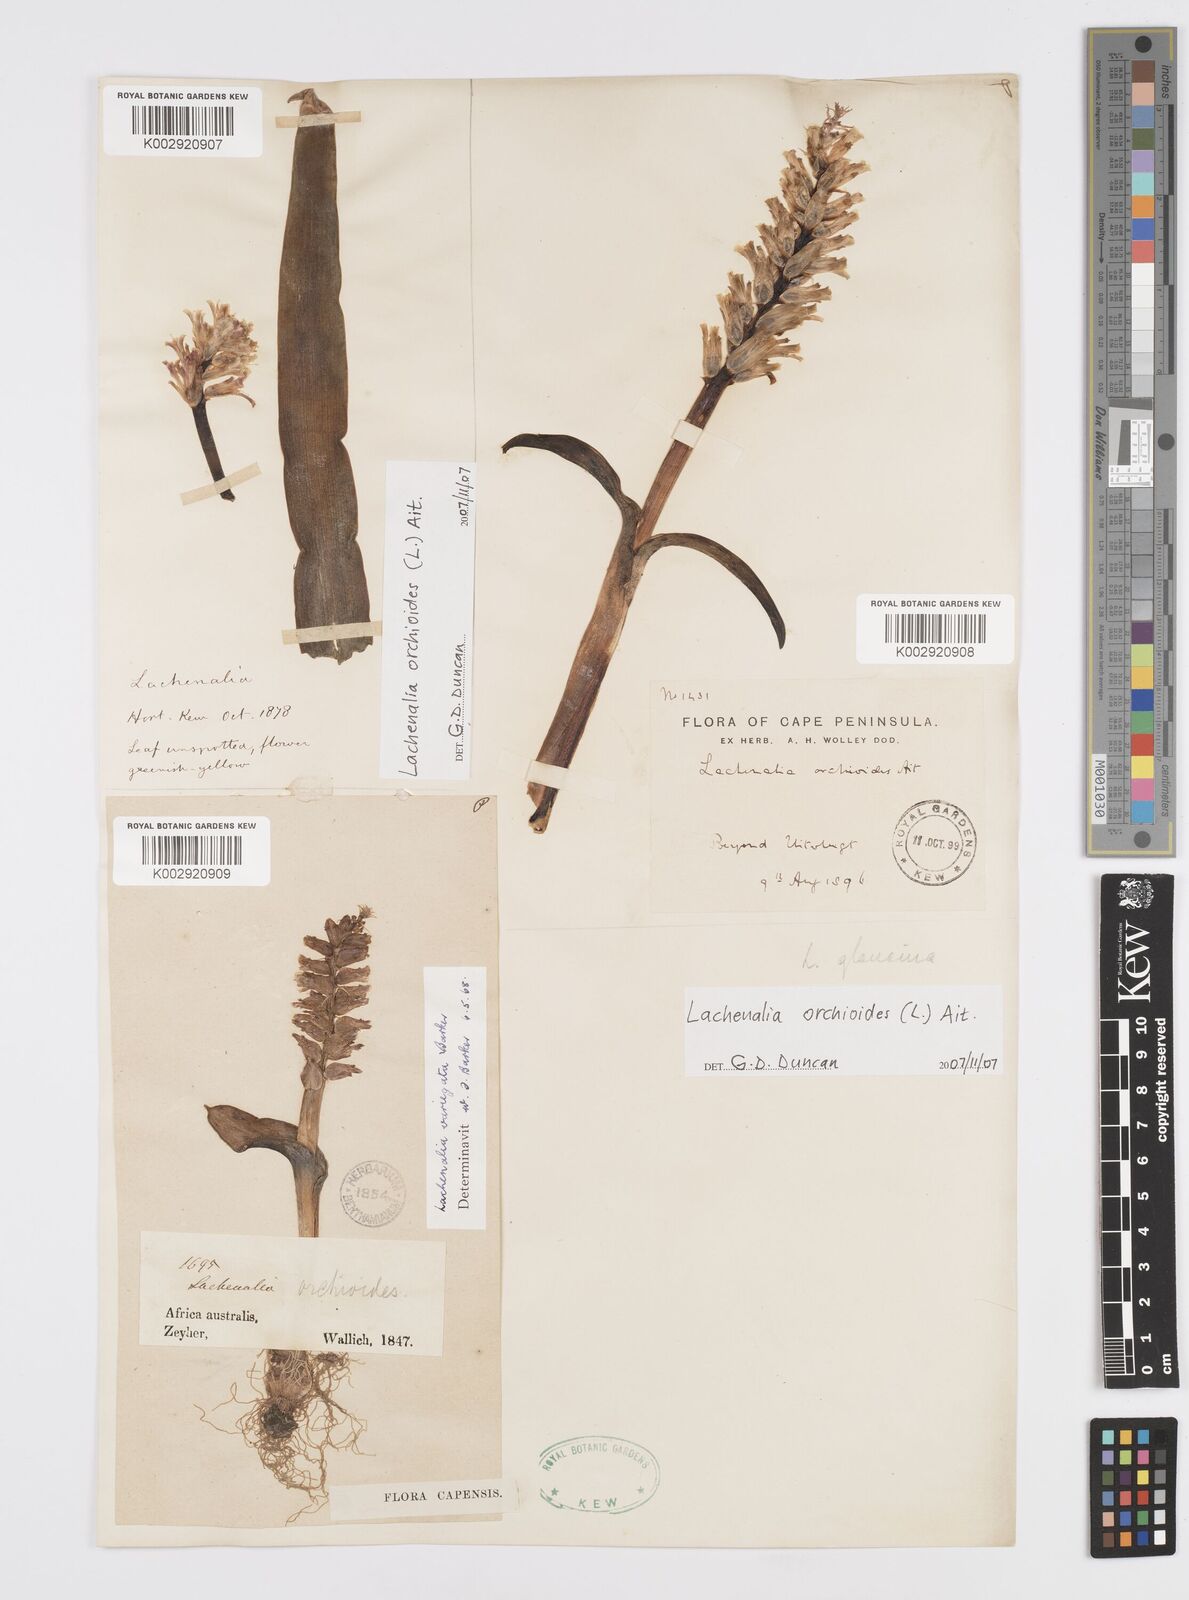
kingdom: Plantae
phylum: Tracheophyta
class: Liliopsida
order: Asparagales
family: Asparagaceae
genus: Lachenalia
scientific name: Lachenalia variegata
